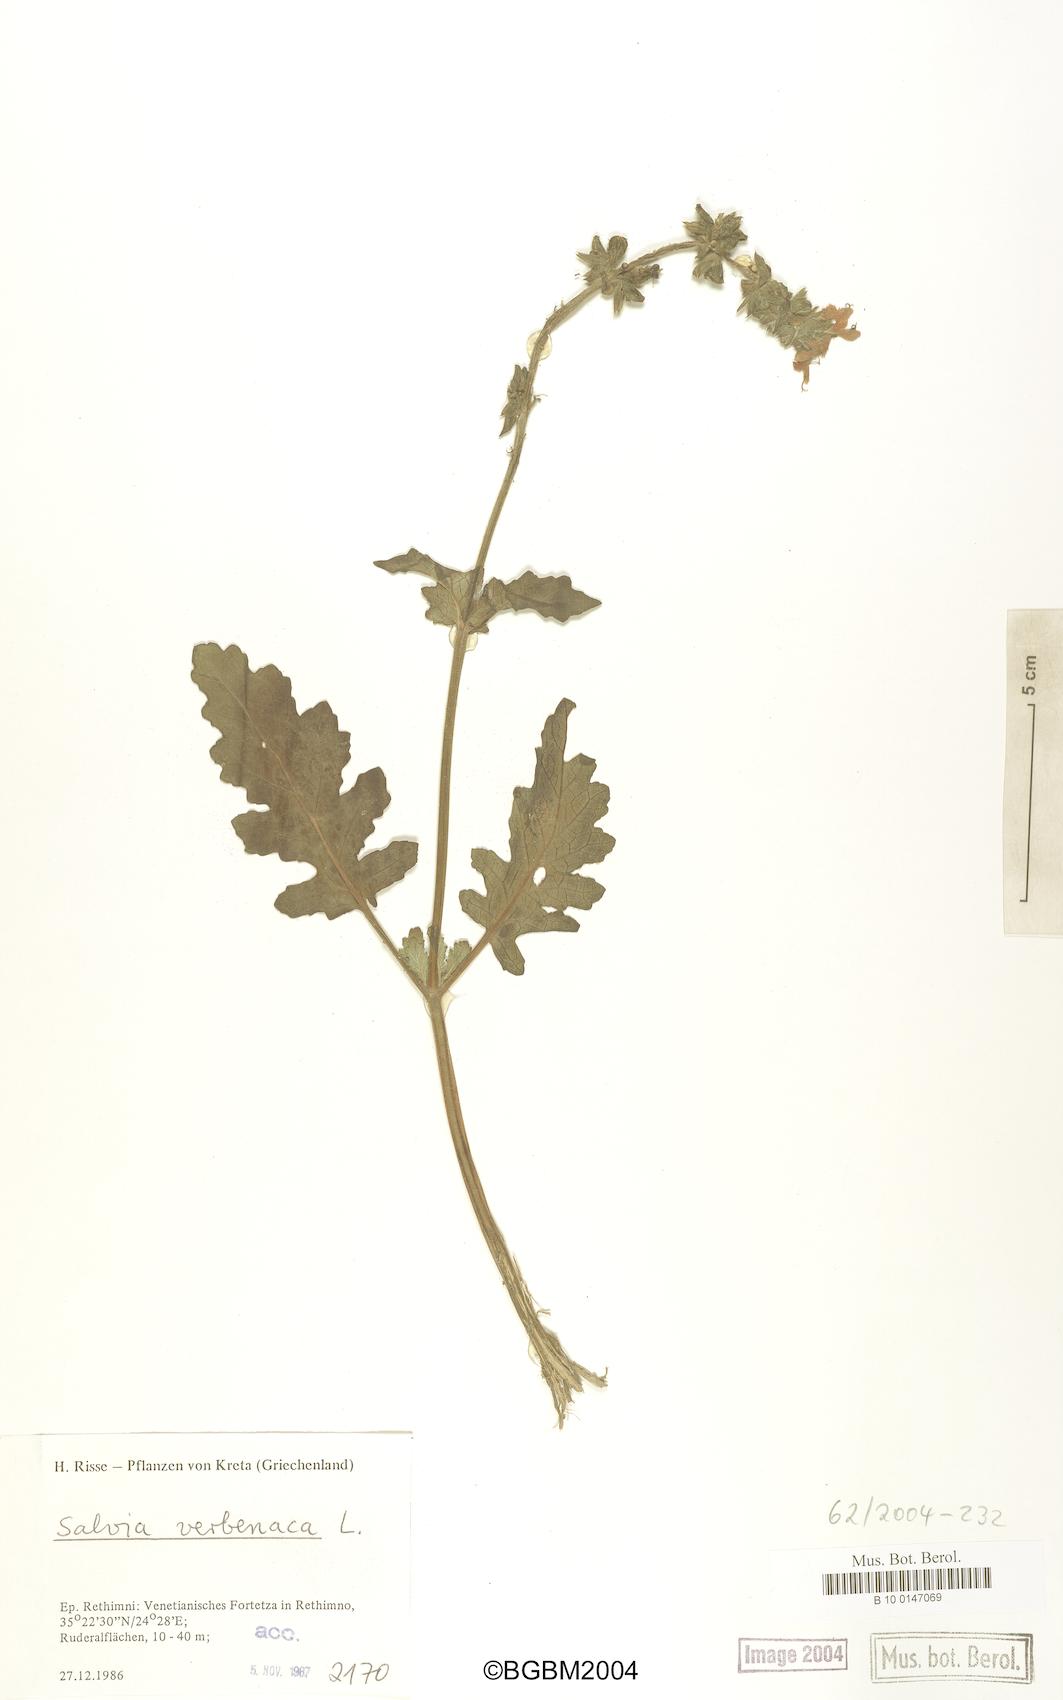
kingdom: Plantae
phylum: Tracheophyta
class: Magnoliopsida
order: Lamiales
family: Lamiaceae
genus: Salvia
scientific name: Salvia verbenaca
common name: Wild clary
